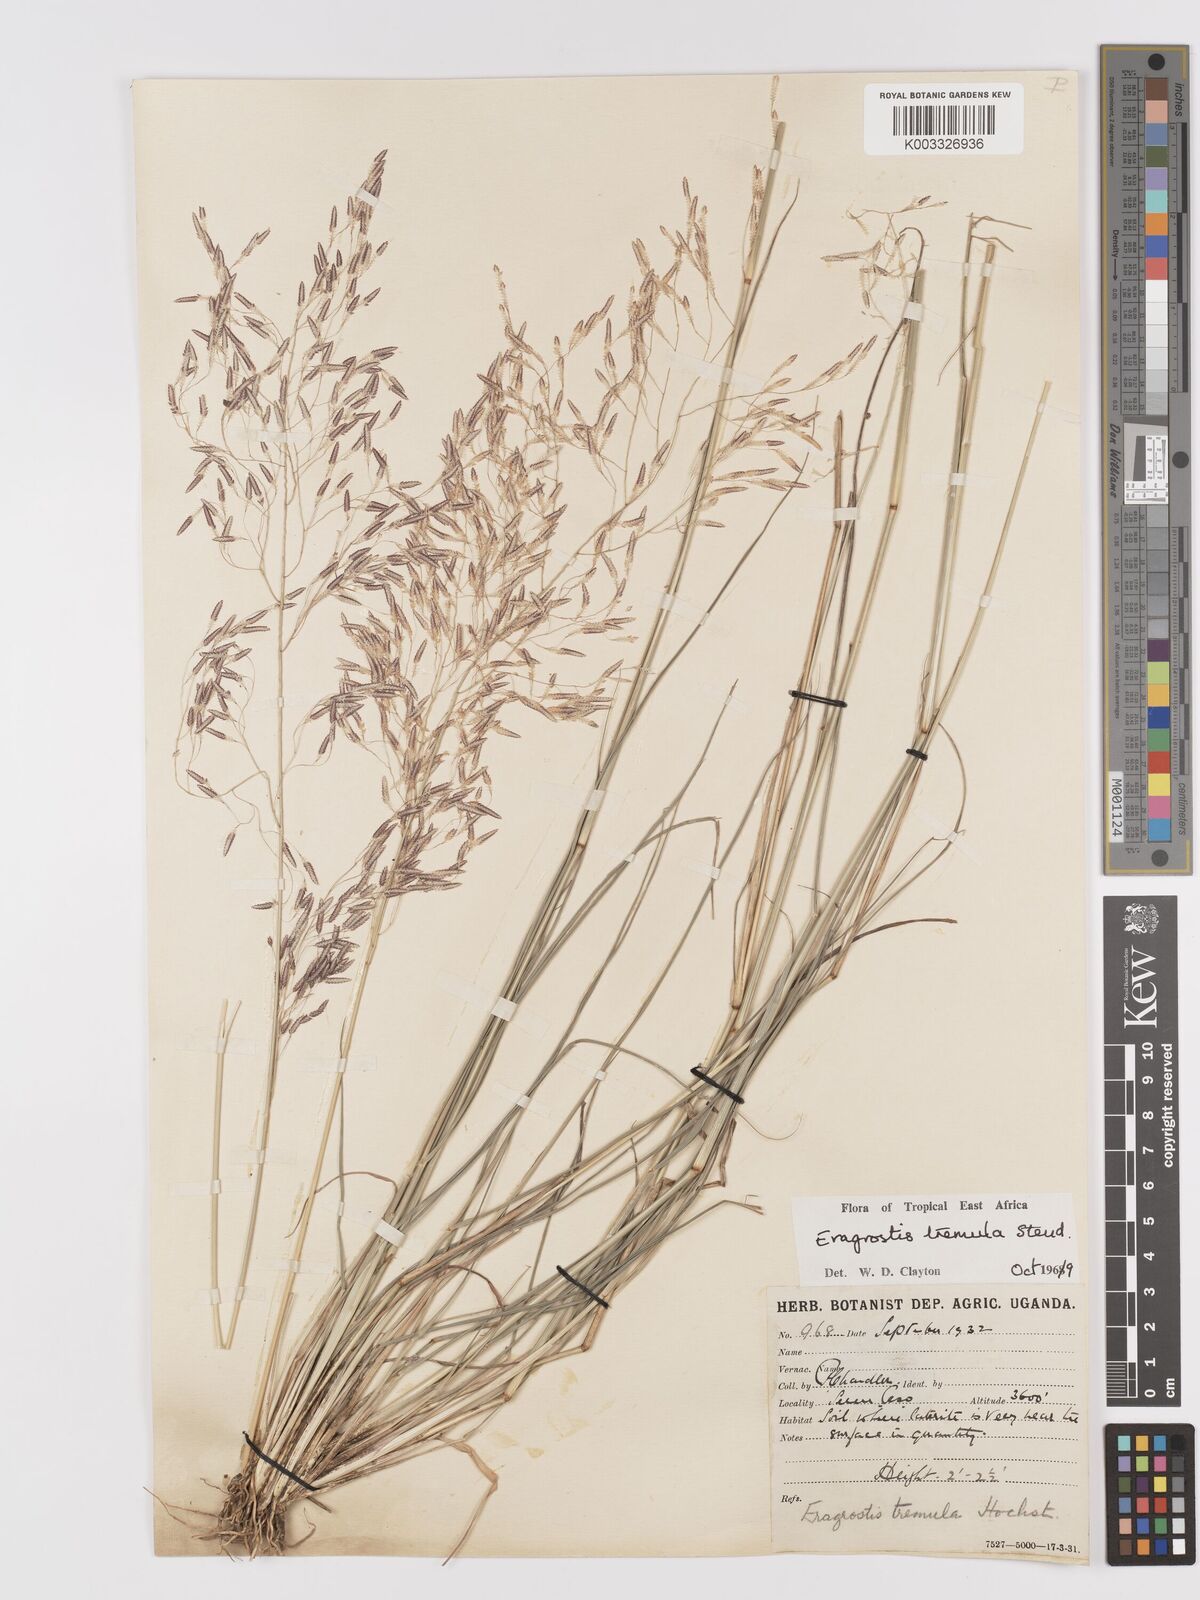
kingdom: Plantae
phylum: Tracheophyta
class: Liliopsida
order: Poales
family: Poaceae
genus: Eragrostis
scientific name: Eragrostis tremula
